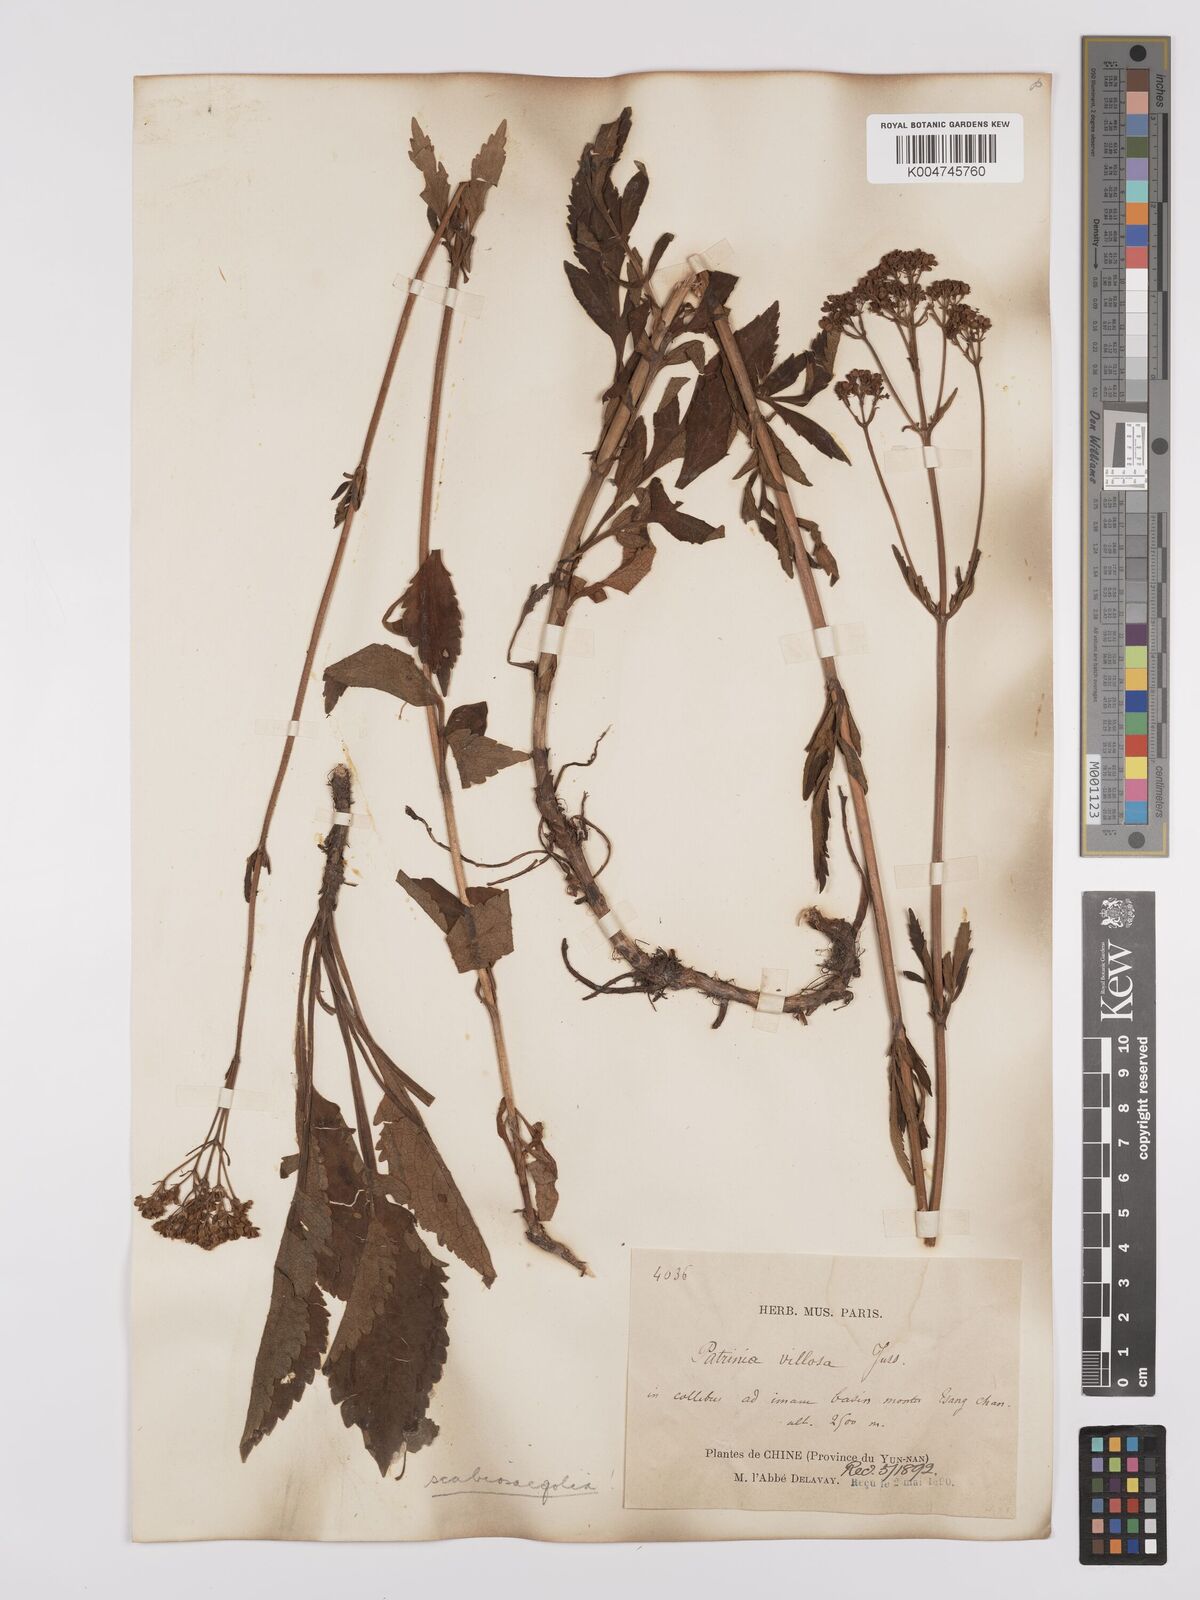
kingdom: Plantae
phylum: Tracheophyta
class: Magnoliopsida
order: Dipsacales
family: Caprifoliaceae
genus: Patrinia
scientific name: Patrinia
